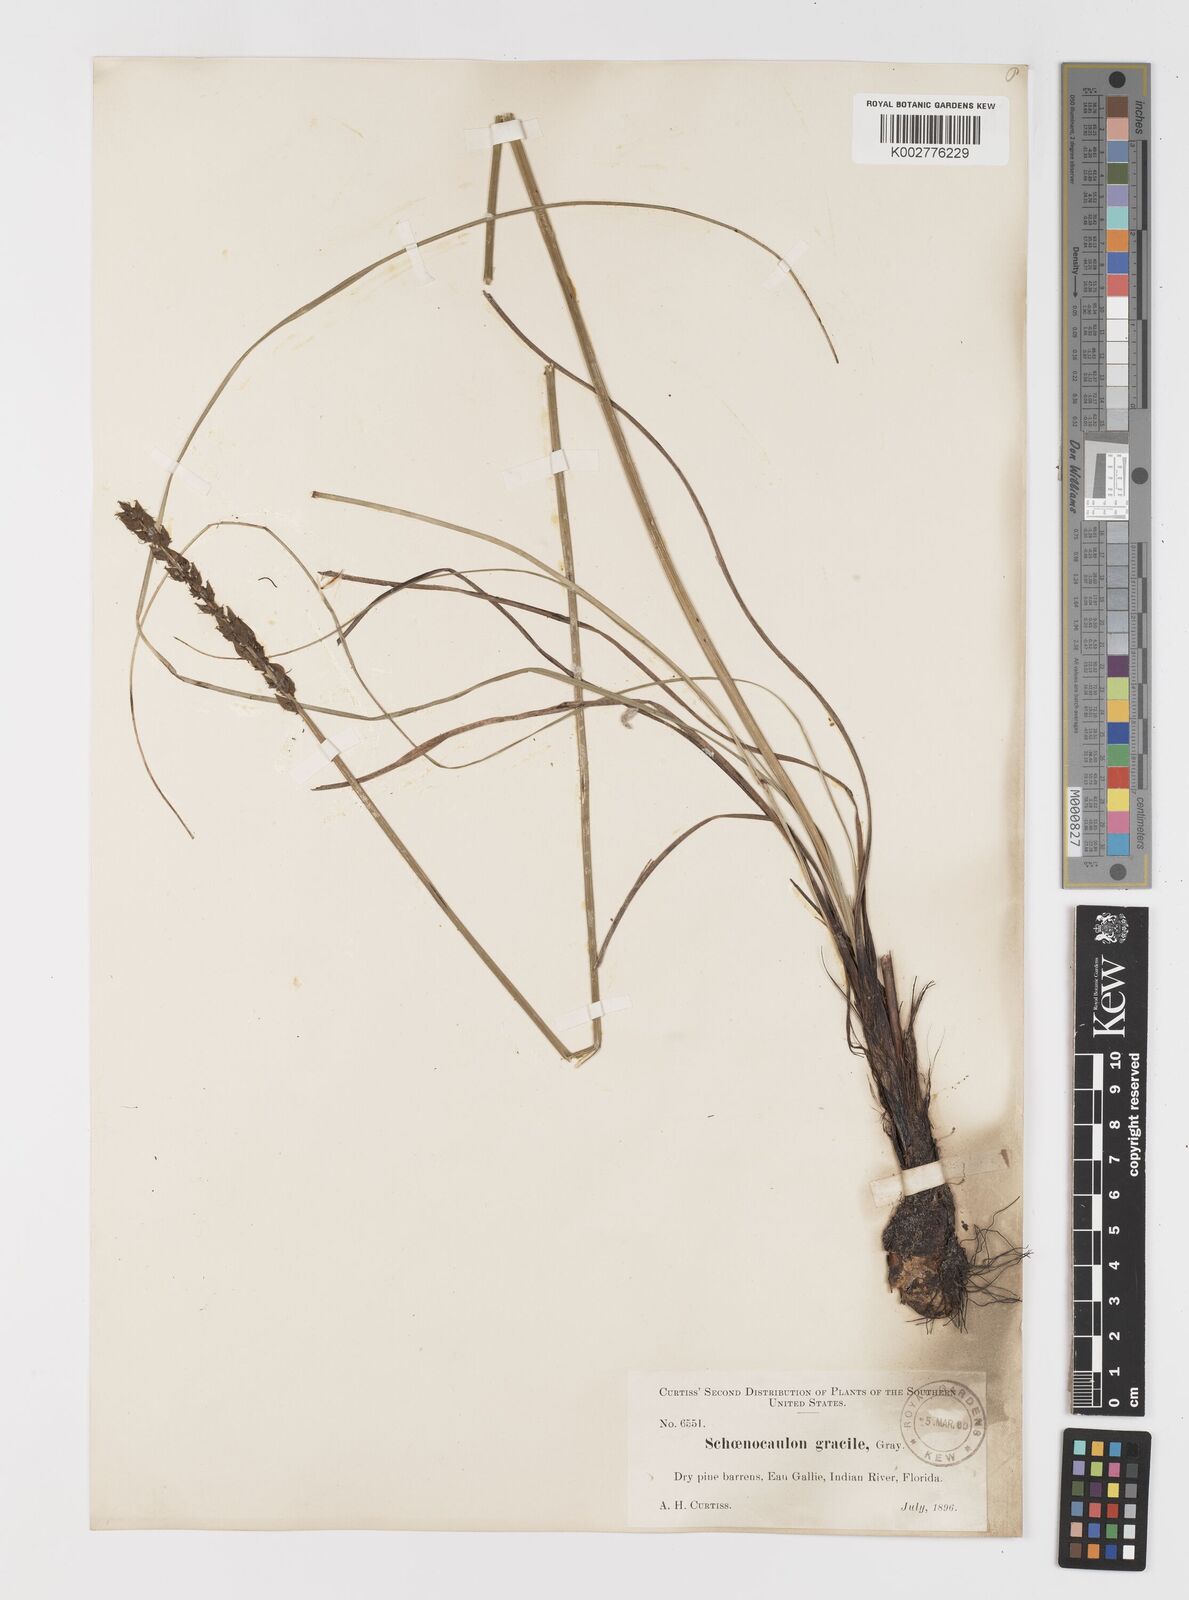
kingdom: Plantae
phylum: Tracheophyta
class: Liliopsida
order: Liliales
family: Melanthiaceae
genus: Schoenocaulon
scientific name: Schoenocaulon dubium
